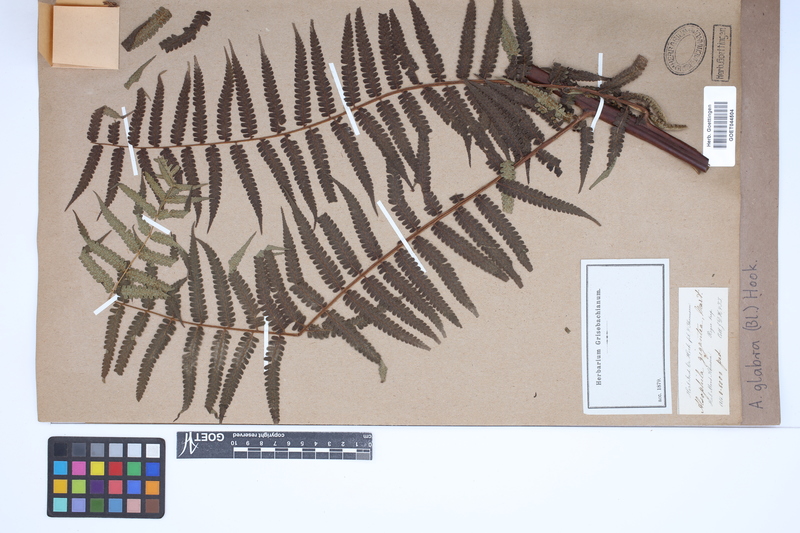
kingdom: Plantae
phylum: Tracheophyta
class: Polypodiopsida
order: Cyatheales
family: Cyatheaceae
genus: Gymnosphaera
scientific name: Gymnosphaera glabra
